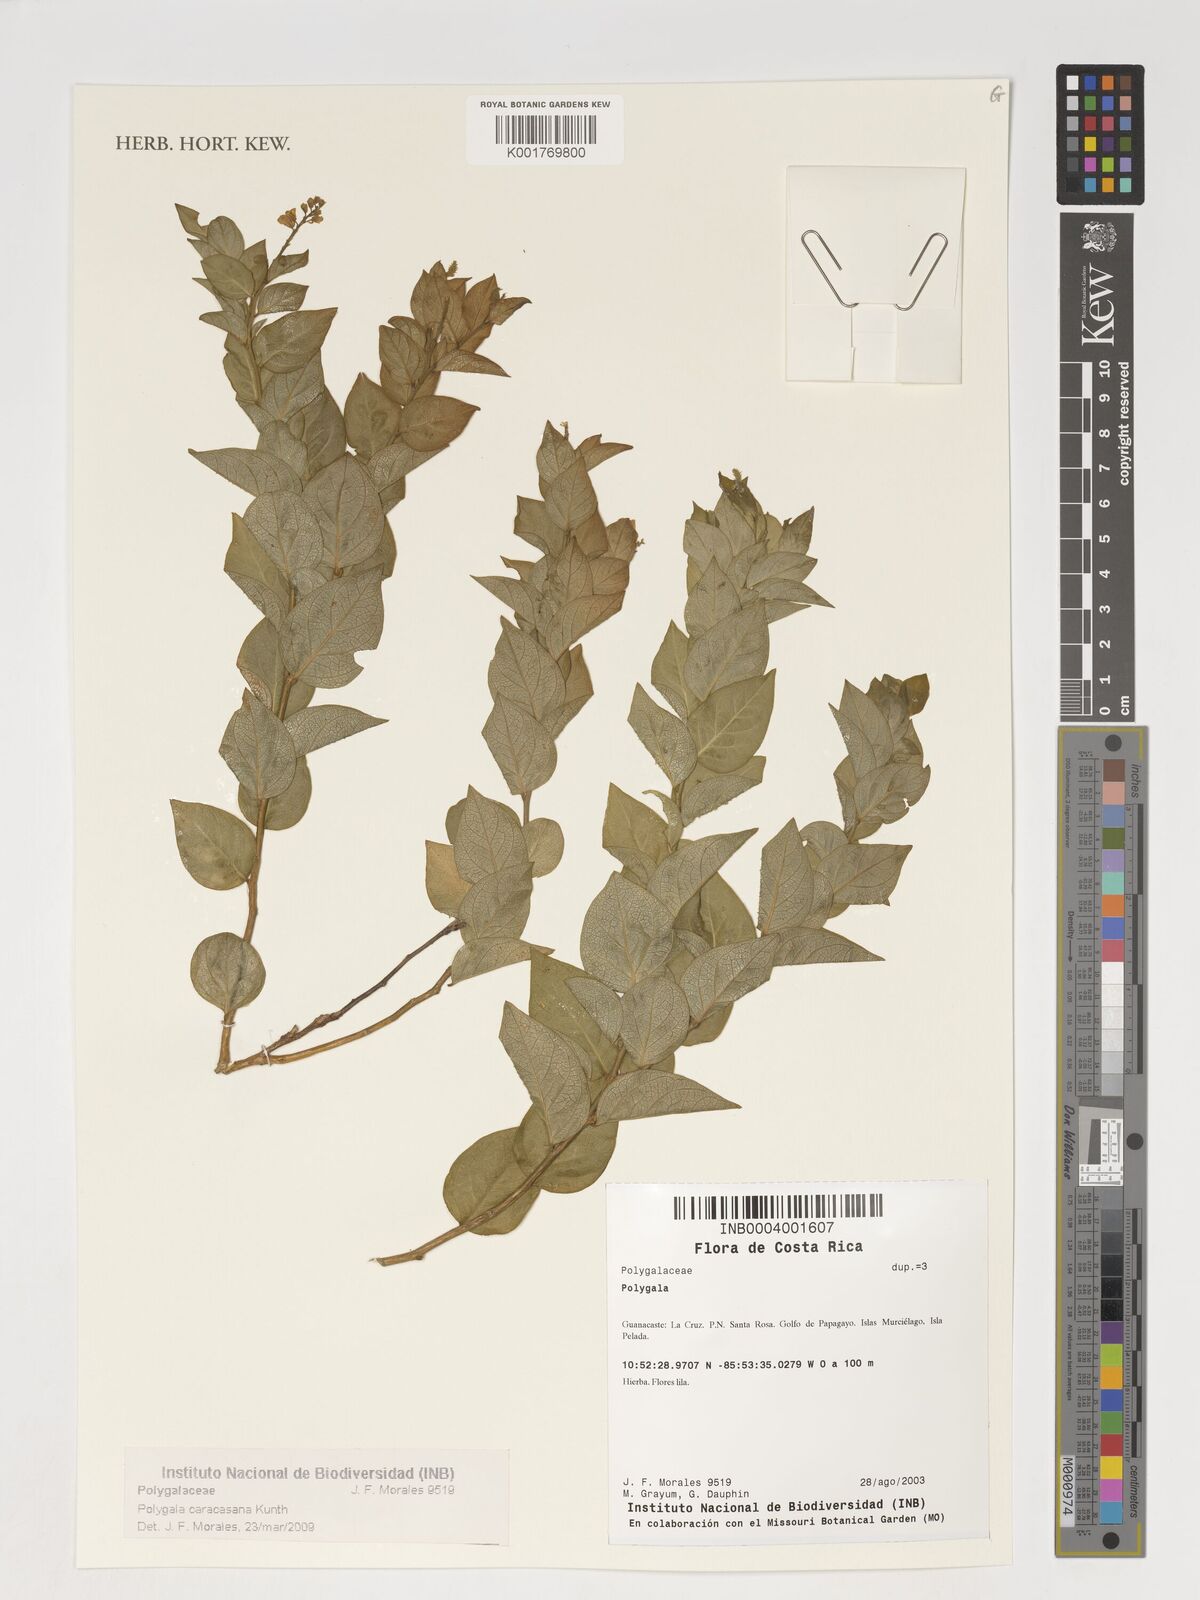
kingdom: Plantae
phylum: Tracheophyta
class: Magnoliopsida
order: Fabales
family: Polygalaceae
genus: Hebecarpa
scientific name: Hebecarpa caracasana
